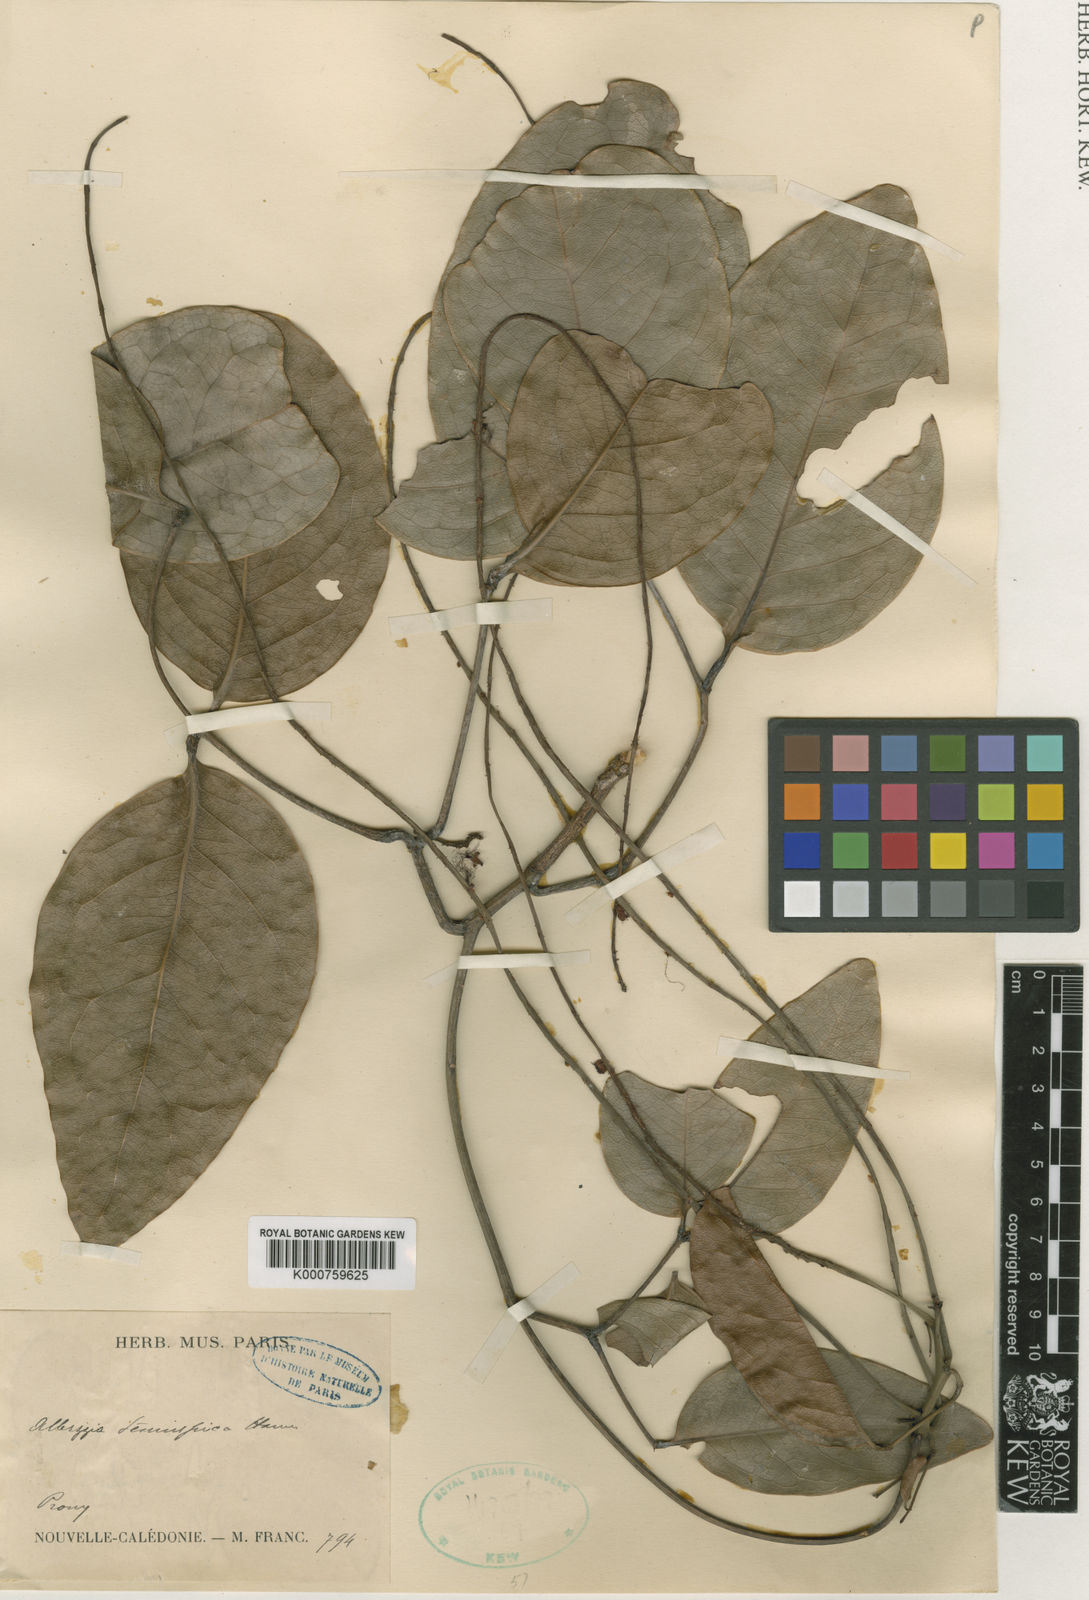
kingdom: Plantae
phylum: Tracheophyta
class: Magnoliopsida
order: Fabales
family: Fabaceae
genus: Archidendropsis
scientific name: Archidendropsis paivana
